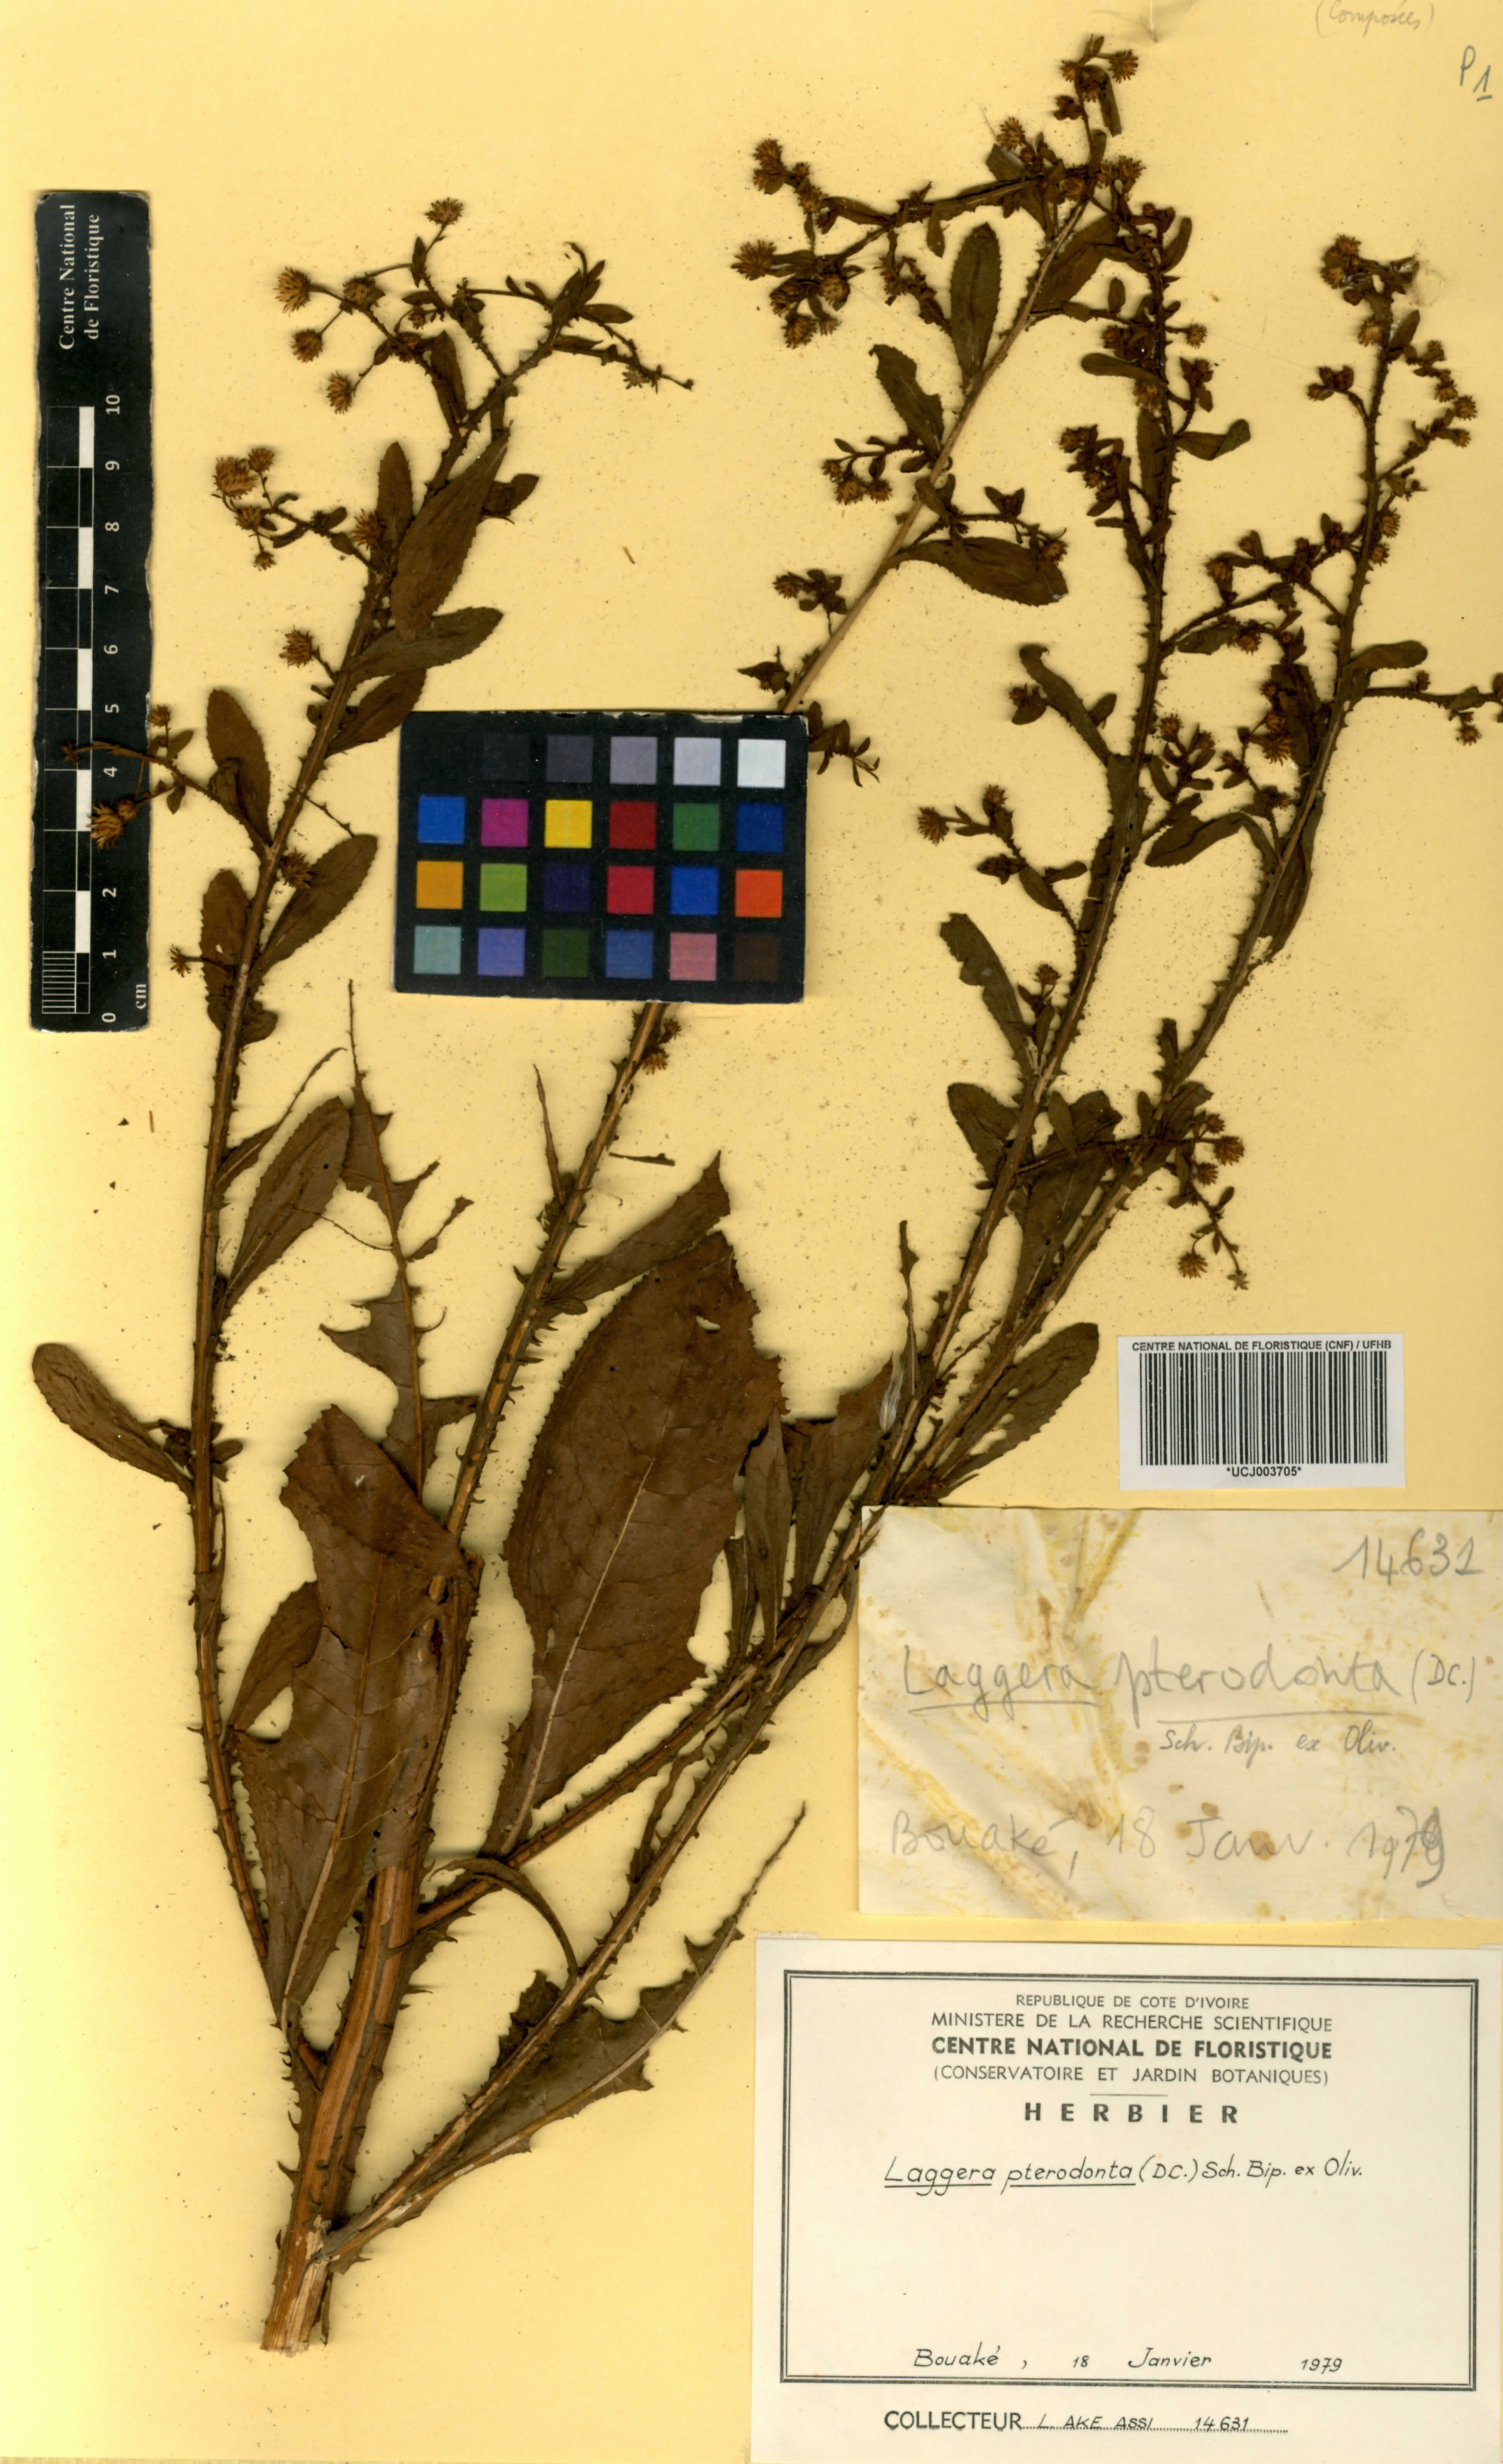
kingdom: Plantae
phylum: Tracheophyta
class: Magnoliopsida
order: Asterales
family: Asteraceae
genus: Laggera
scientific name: Laggera crispata
